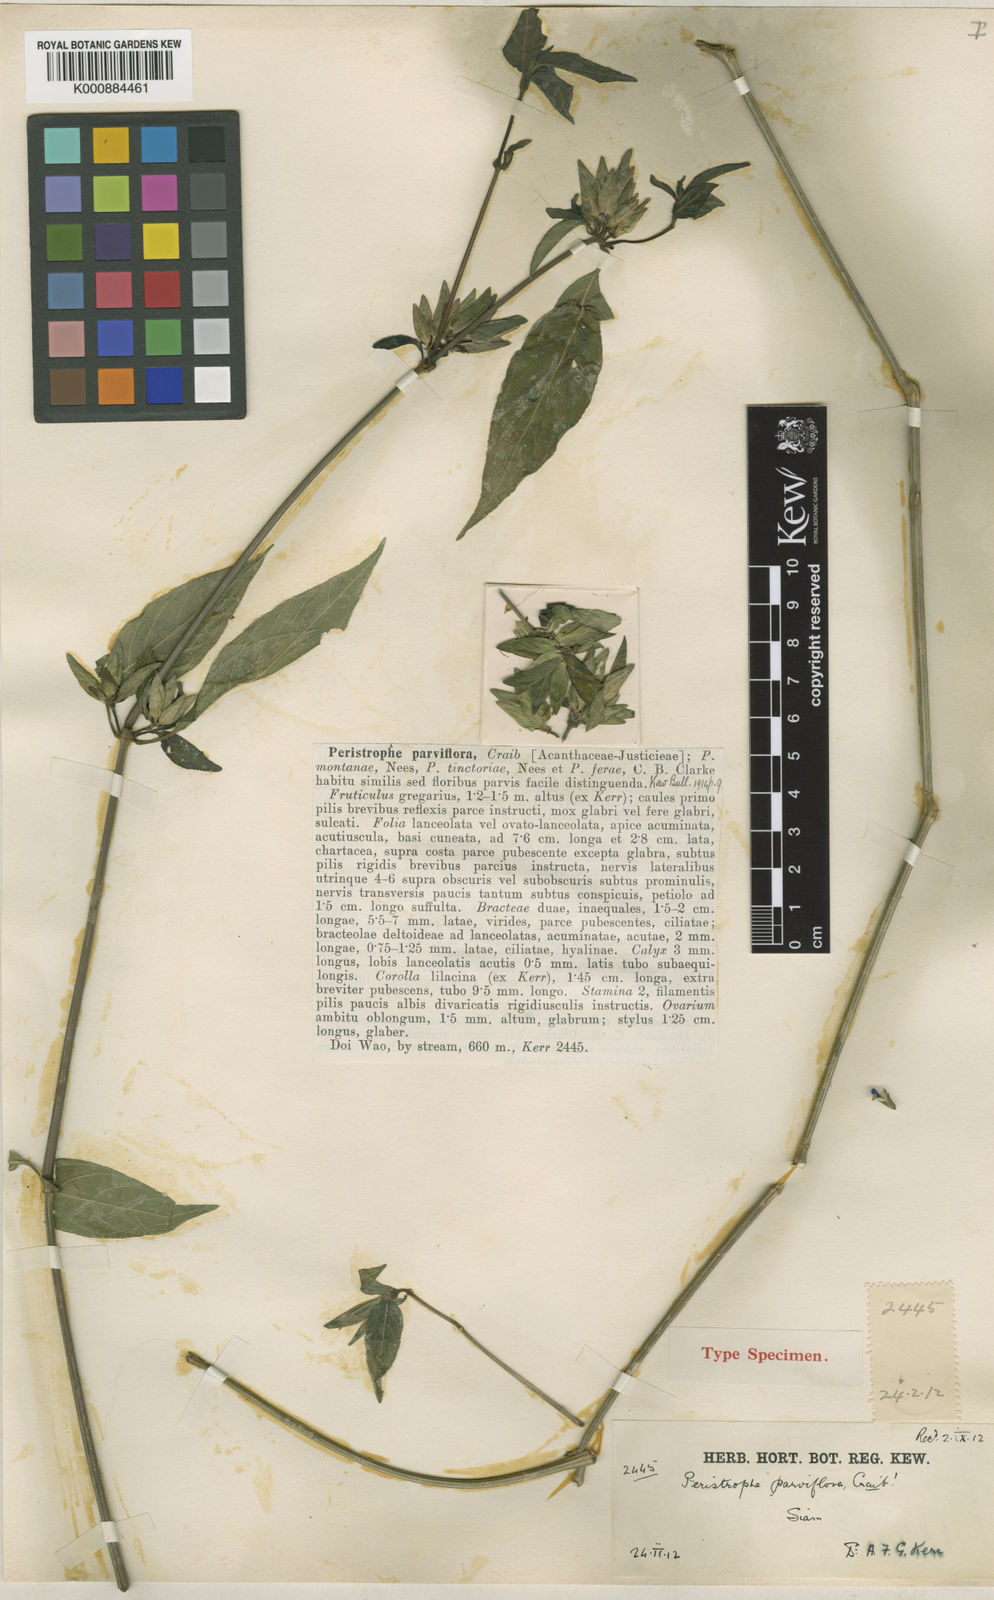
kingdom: Plantae
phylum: Tracheophyta
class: Magnoliopsida
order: Lamiales
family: Acanthaceae
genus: Dicliptera
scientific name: Dicliptera
